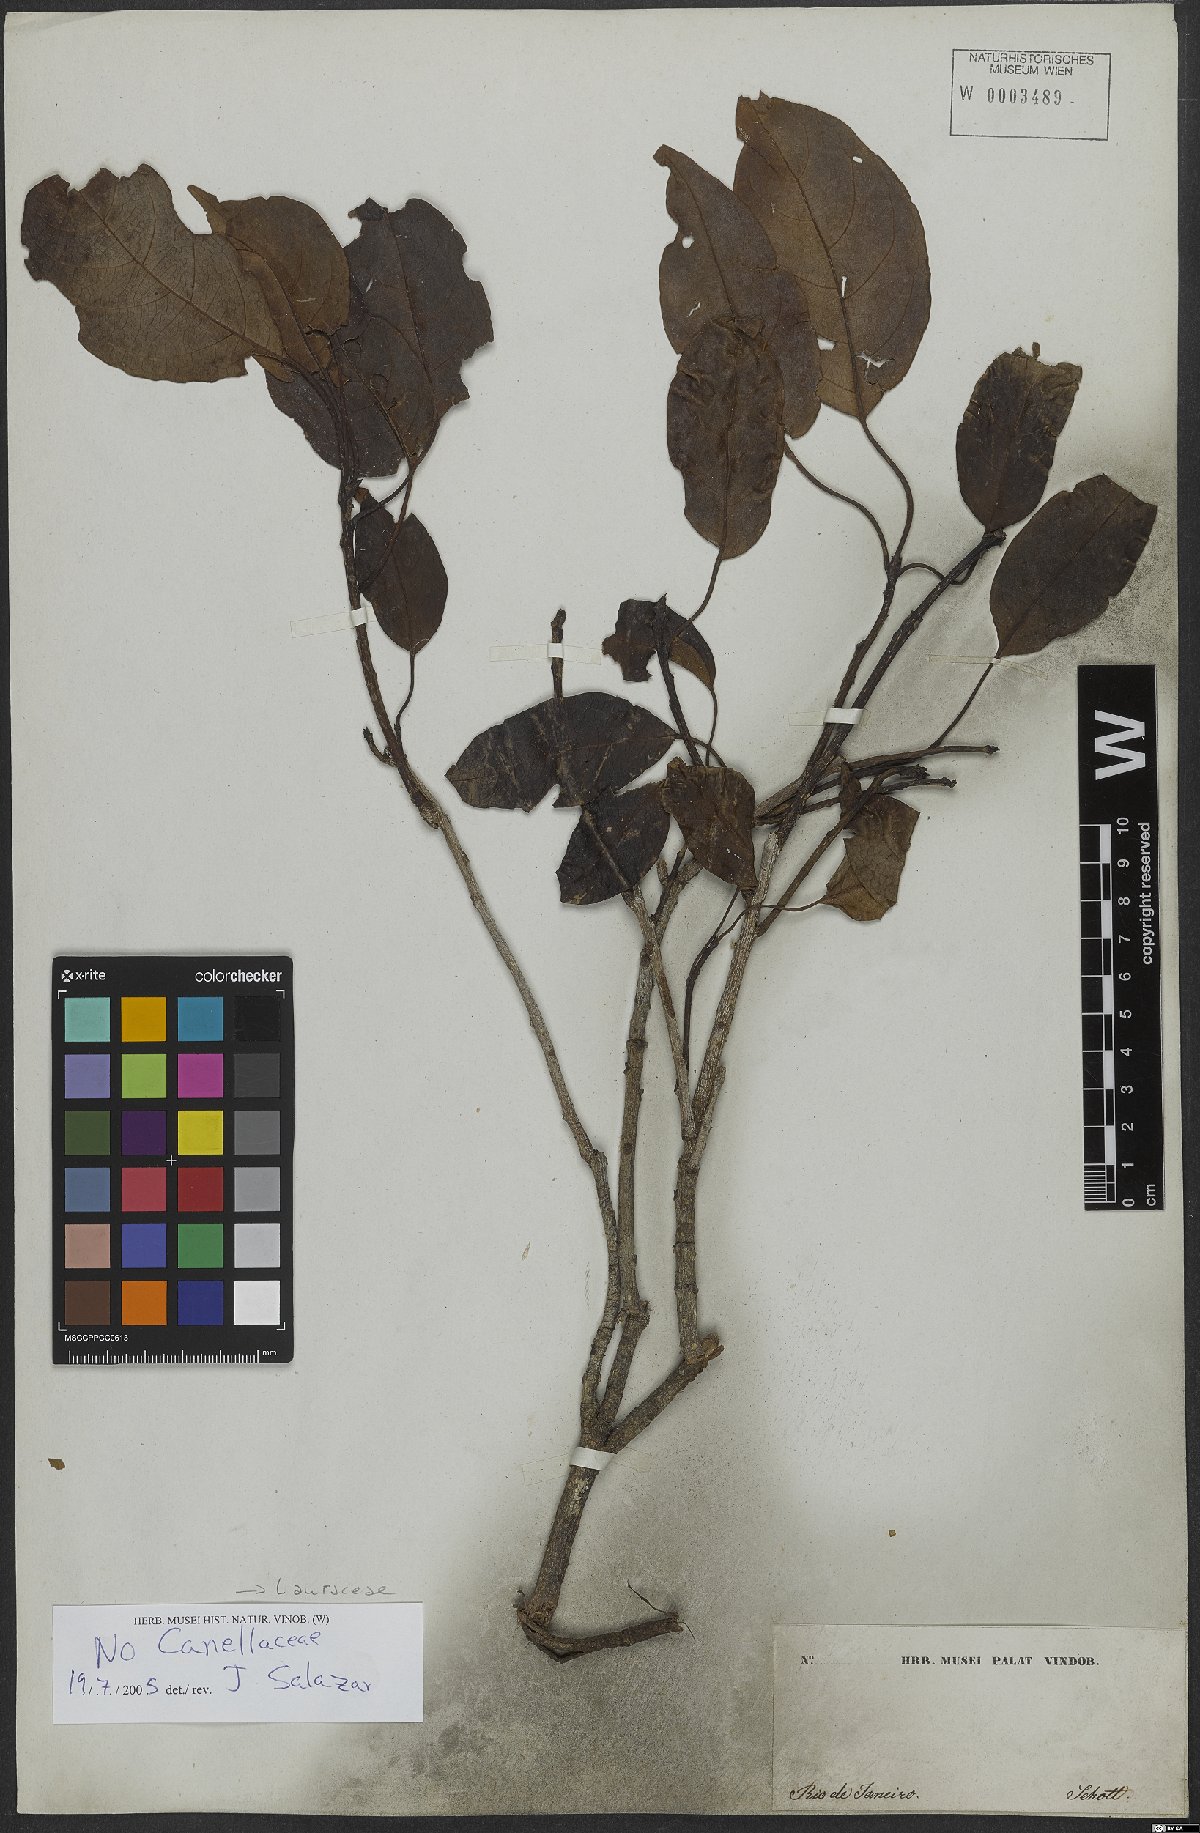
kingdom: Plantae
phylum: Tracheophyta
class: Magnoliopsida
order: Laurales
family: Lauraceae
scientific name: Lauraceae
